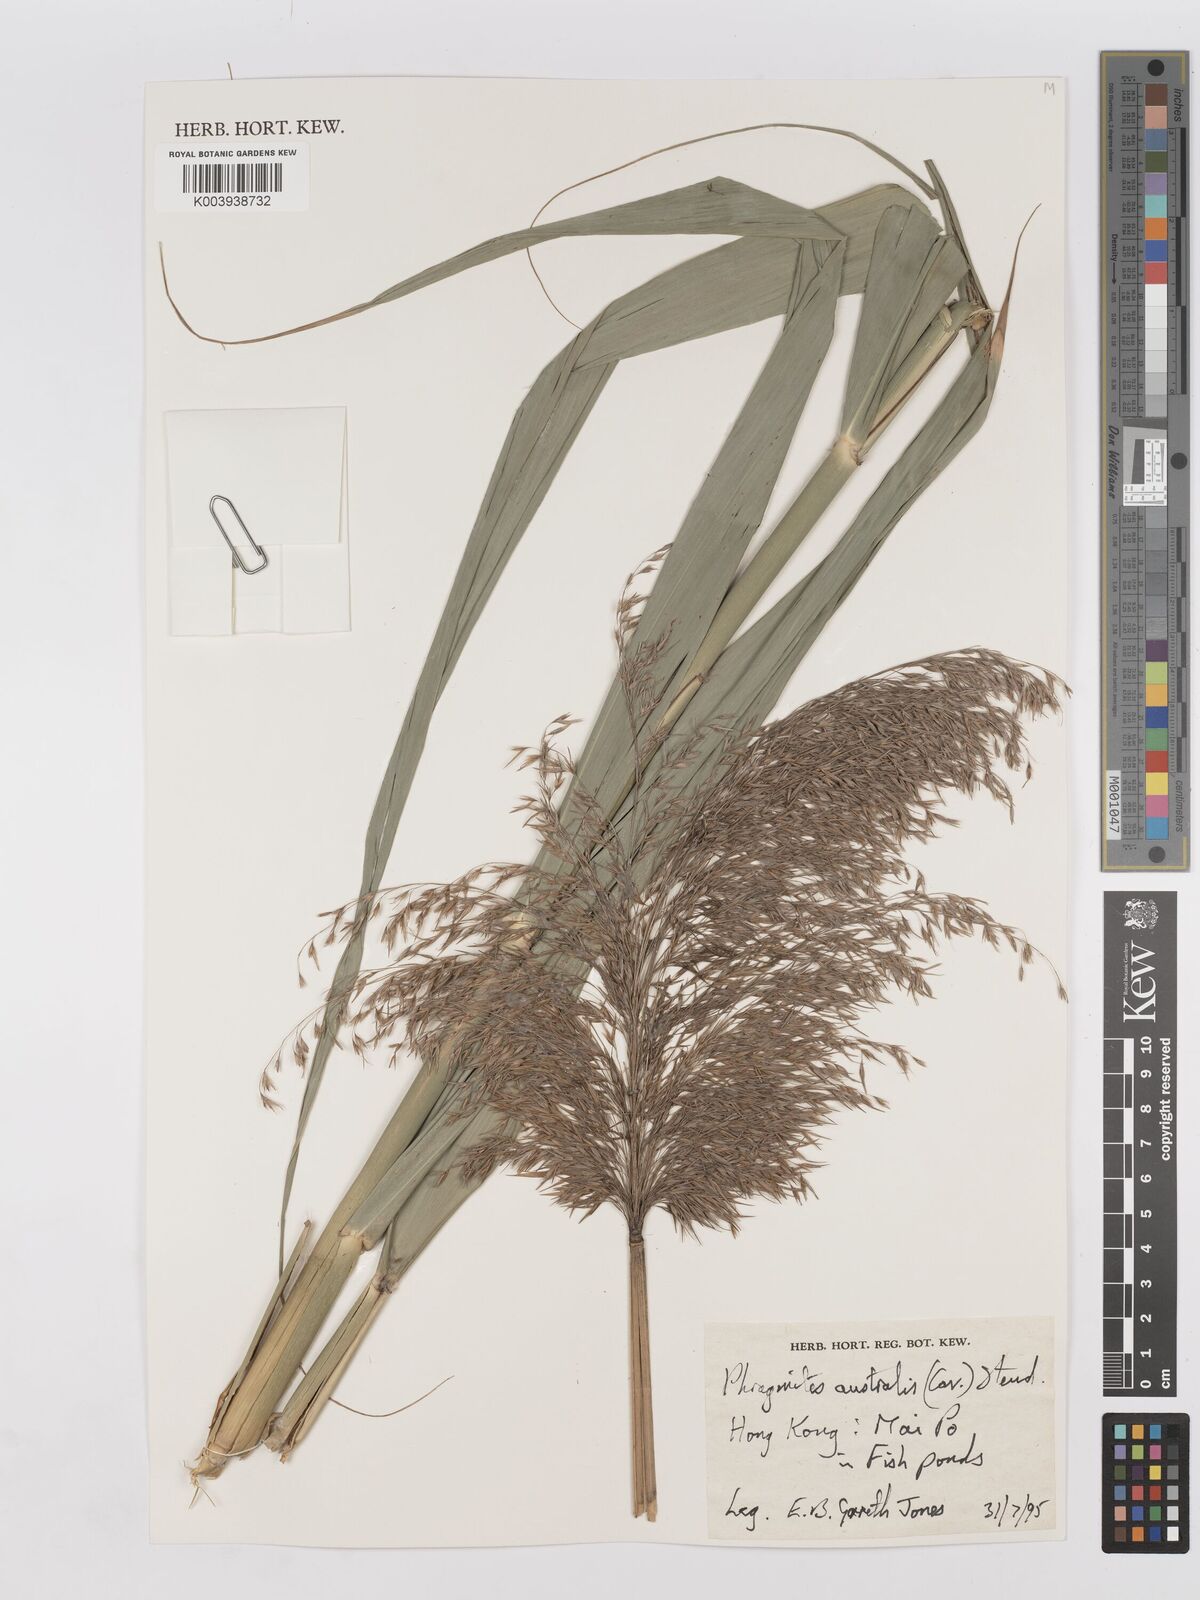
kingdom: Plantae
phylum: Tracheophyta
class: Liliopsida
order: Poales
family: Poaceae
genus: Phragmites
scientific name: Phragmites australis
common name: Common reed
